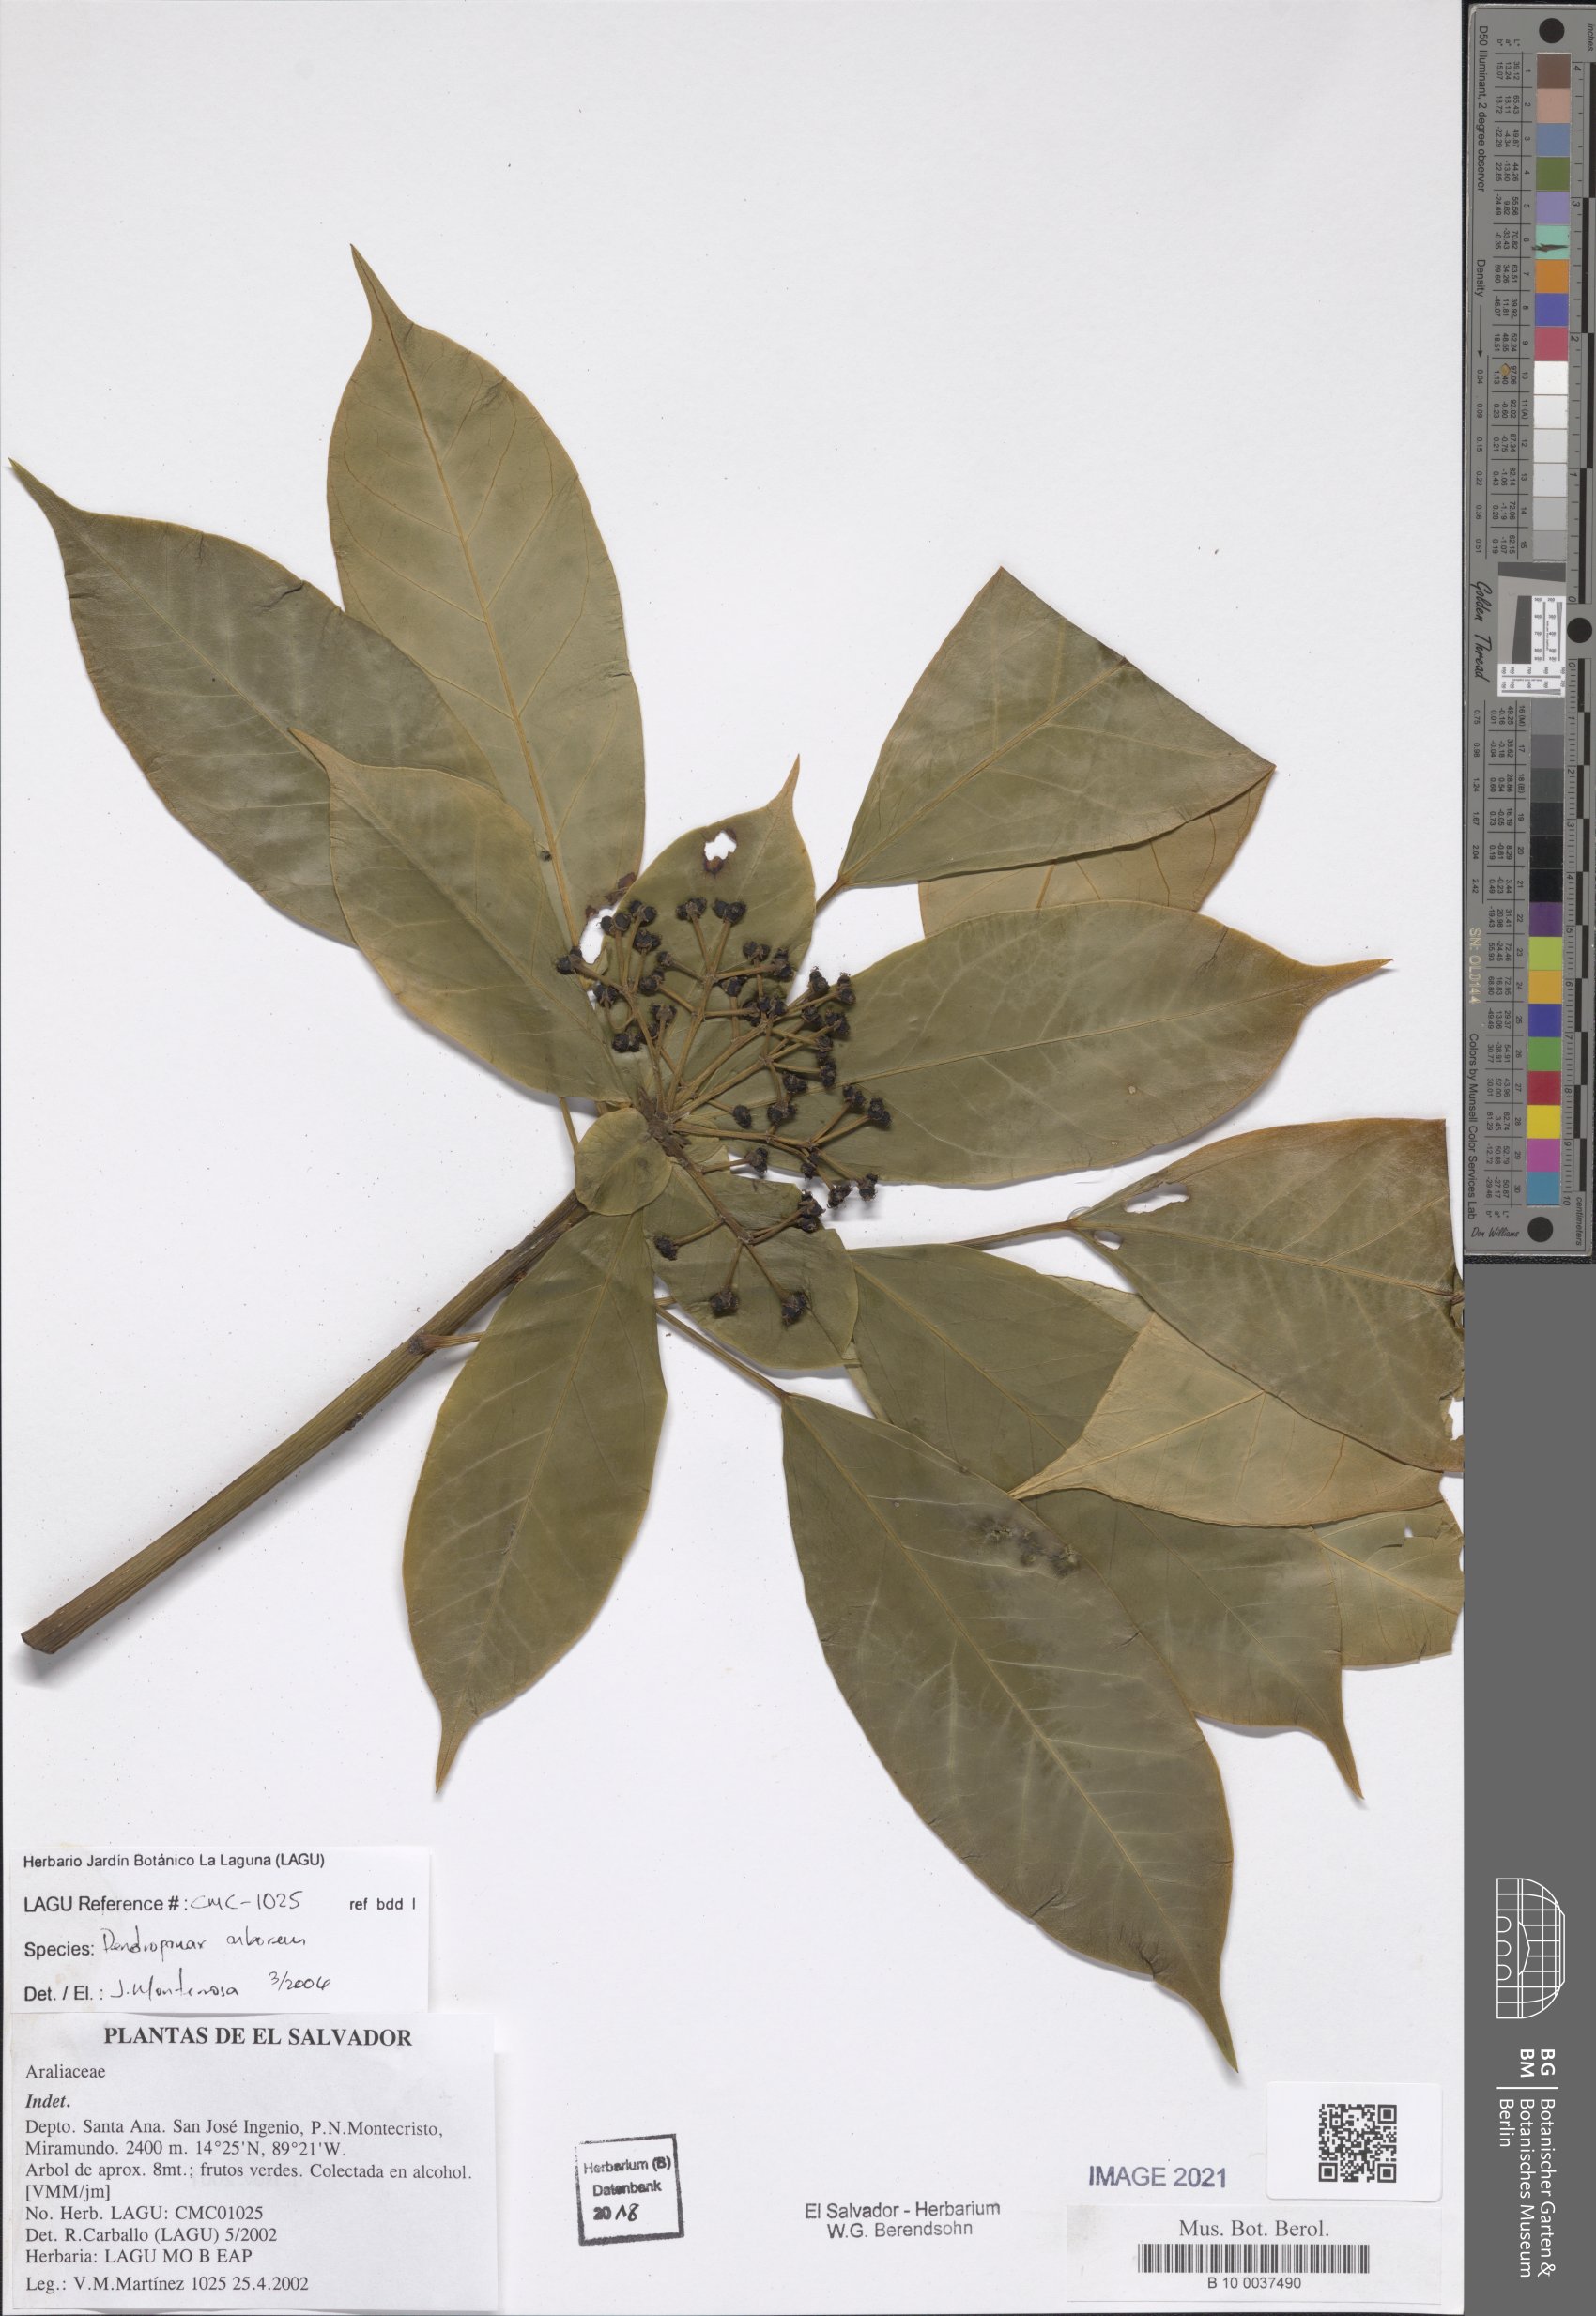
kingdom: Plantae
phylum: Tracheophyta
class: Magnoliopsida
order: Apiales
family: Araliaceae
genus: Dendropanax
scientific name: Dendropanax arboreus
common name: Potato-wood
